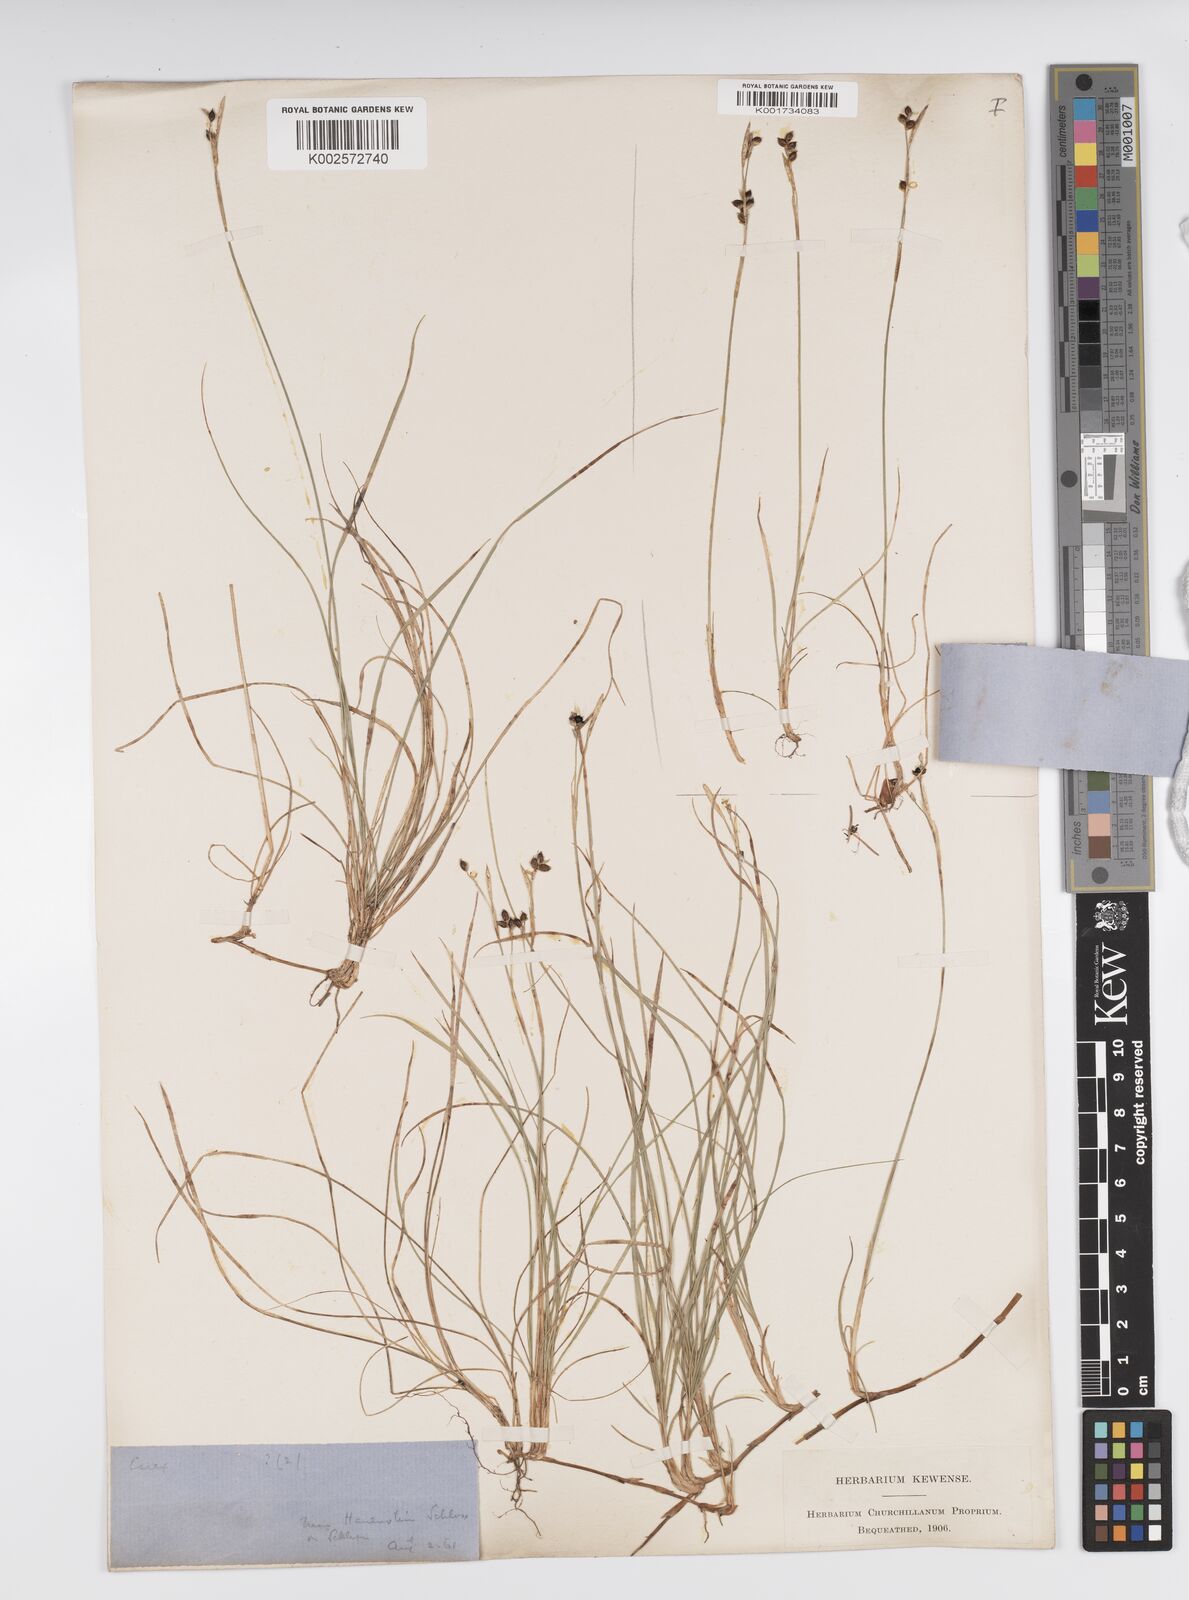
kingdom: Plantae
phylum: Tracheophyta
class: Liliopsida
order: Poales
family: Cyperaceae
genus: Carex
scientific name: Carex alba
